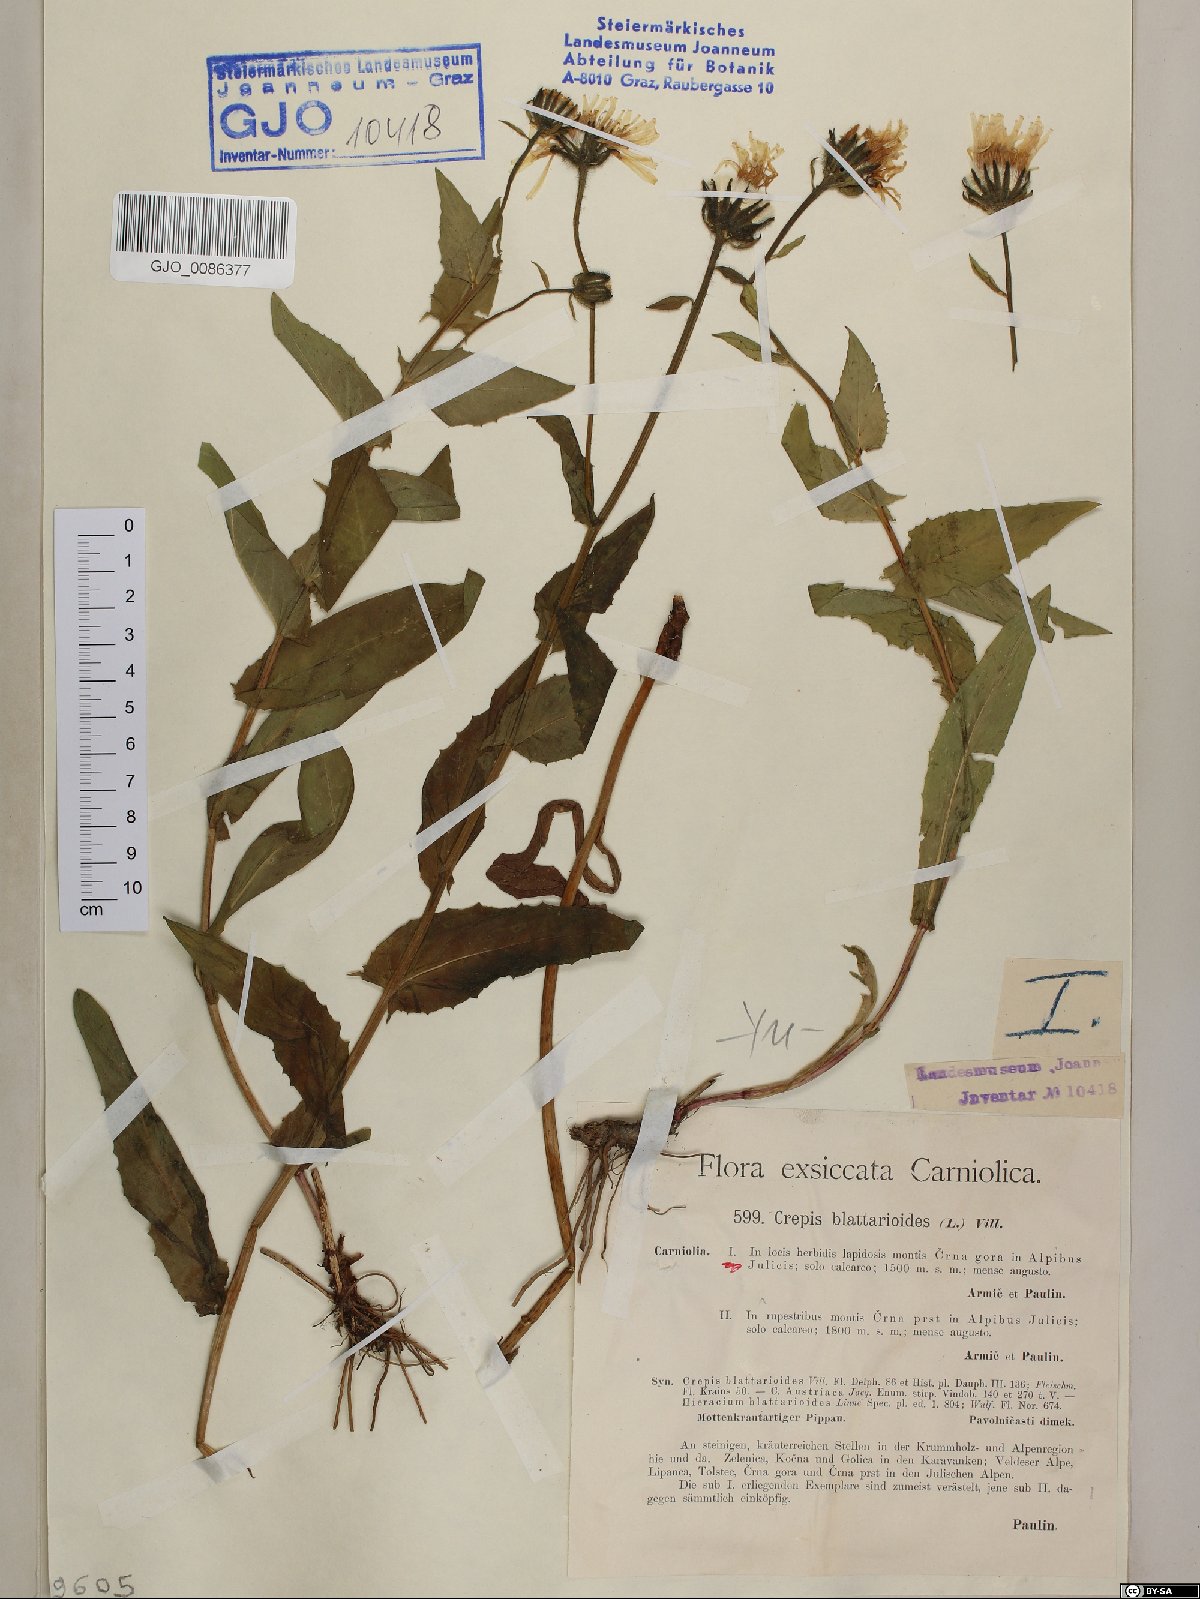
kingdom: Plantae
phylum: Tracheophyta
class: Magnoliopsida
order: Asterales
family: Asteraceae
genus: Crepis
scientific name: Crepis blattarioides
